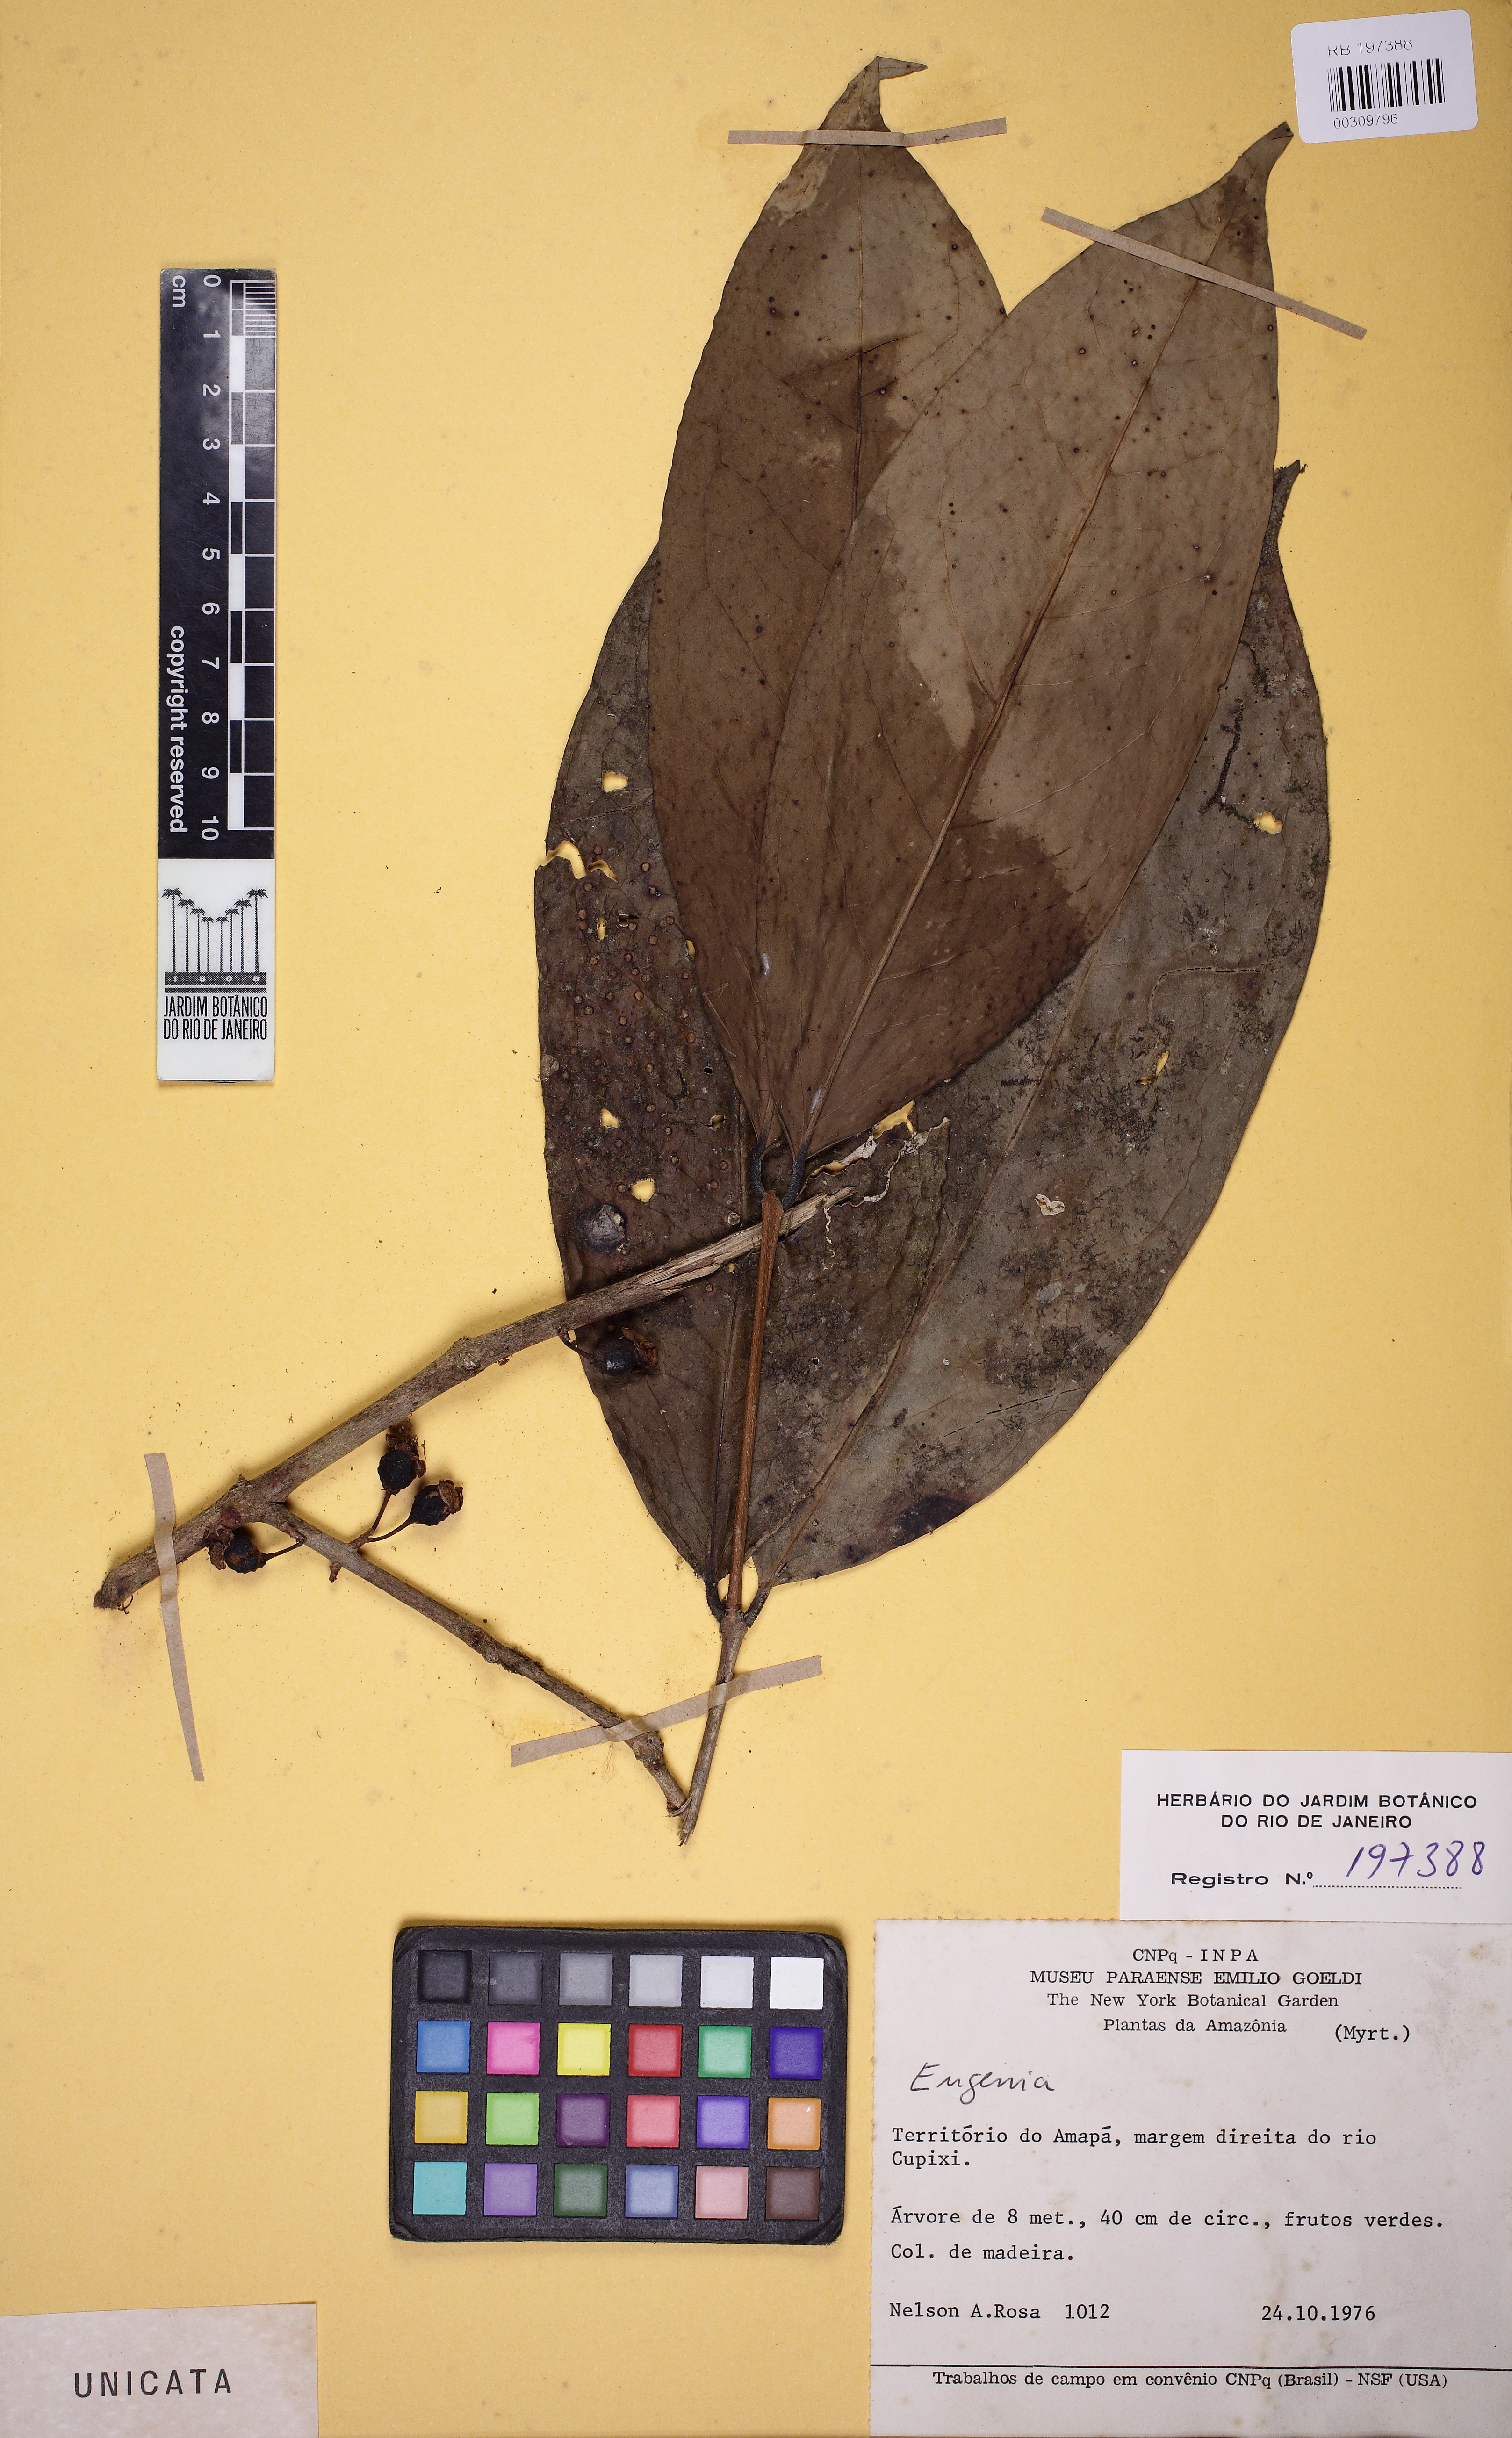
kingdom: Plantae
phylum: Tracheophyta
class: Magnoliopsida
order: Myrtales
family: Myrtaceae
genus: Eugenia
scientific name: Eugenia mimus
